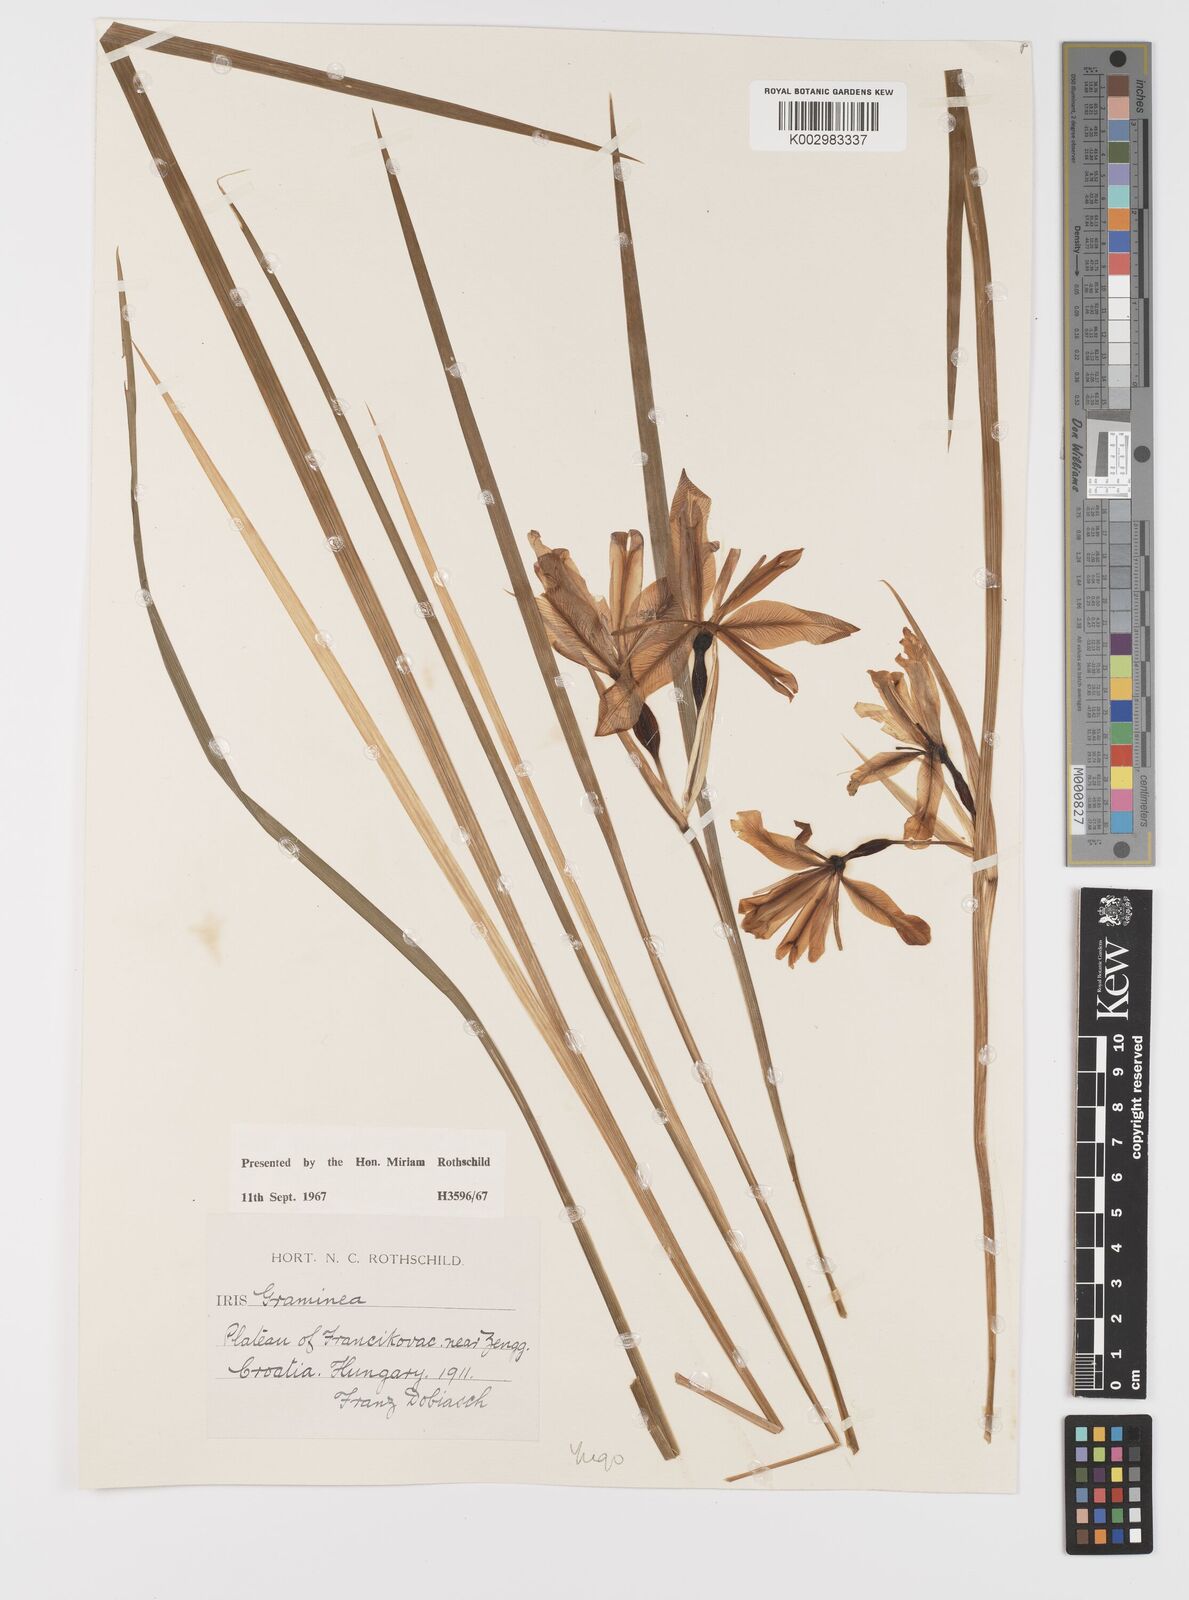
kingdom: Plantae
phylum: Tracheophyta
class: Liliopsida
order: Asparagales
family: Iridaceae
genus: Iris
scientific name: Iris graminea
